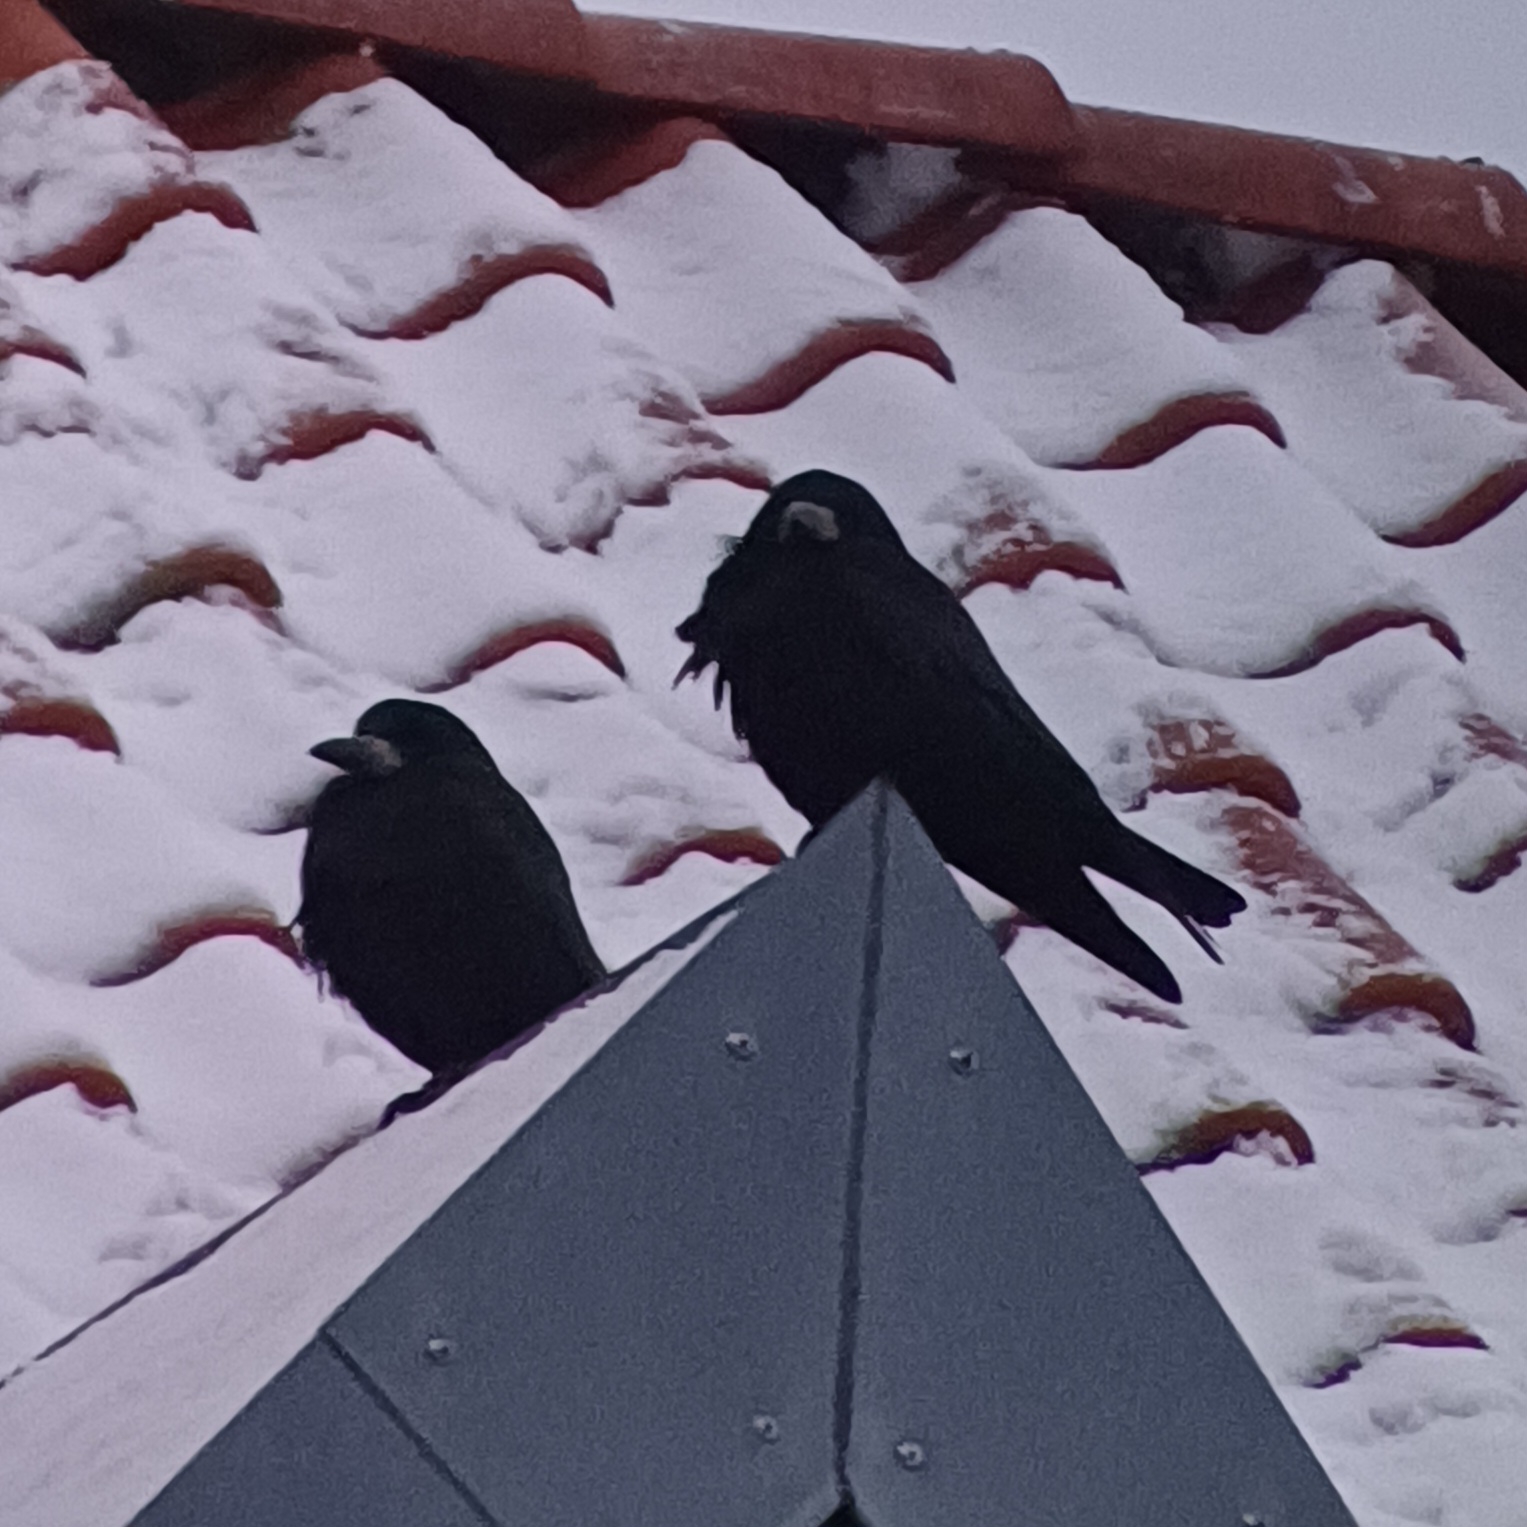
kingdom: Animalia
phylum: Chordata
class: Aves
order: Passeriformes
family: Corvidae
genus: Corvus
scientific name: Corvus frugilegus
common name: Råge
